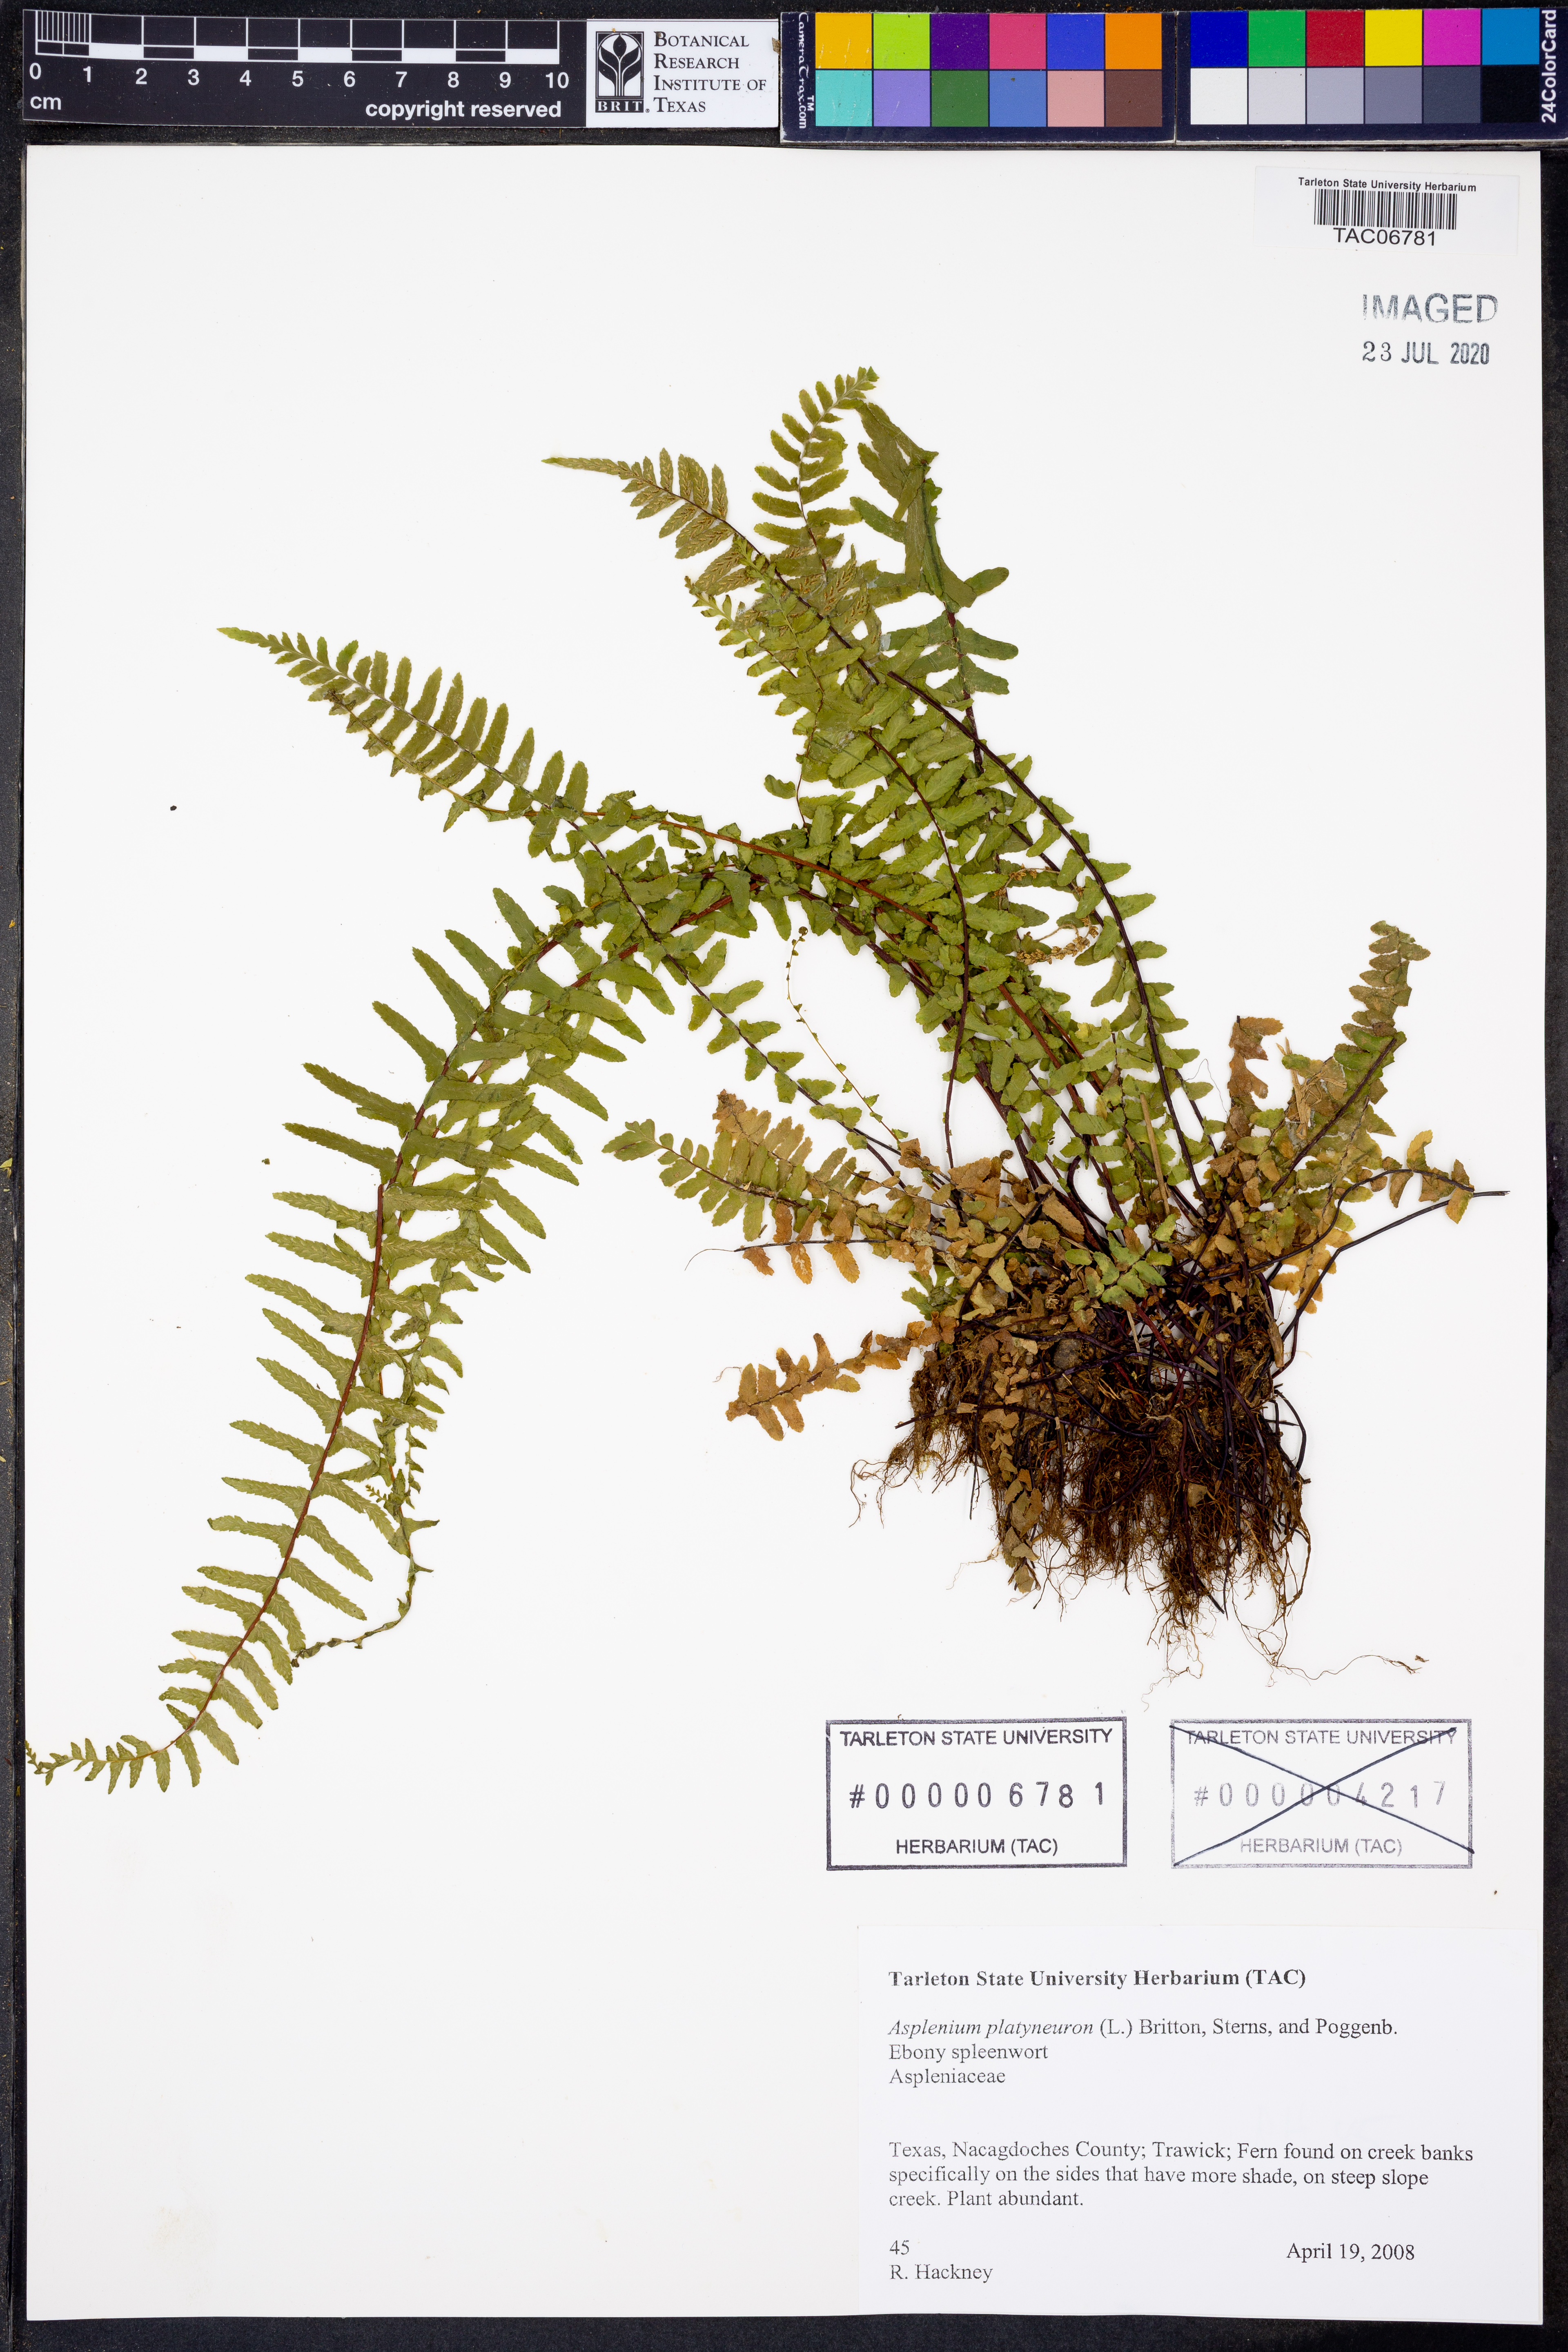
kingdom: Plantae
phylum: Tracheophyta
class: Polypodiopsida
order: Polypodiales
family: Aspleniaceae
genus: Asplenium
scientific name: Asplenium platyneuron
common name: Ebony spleenwort
